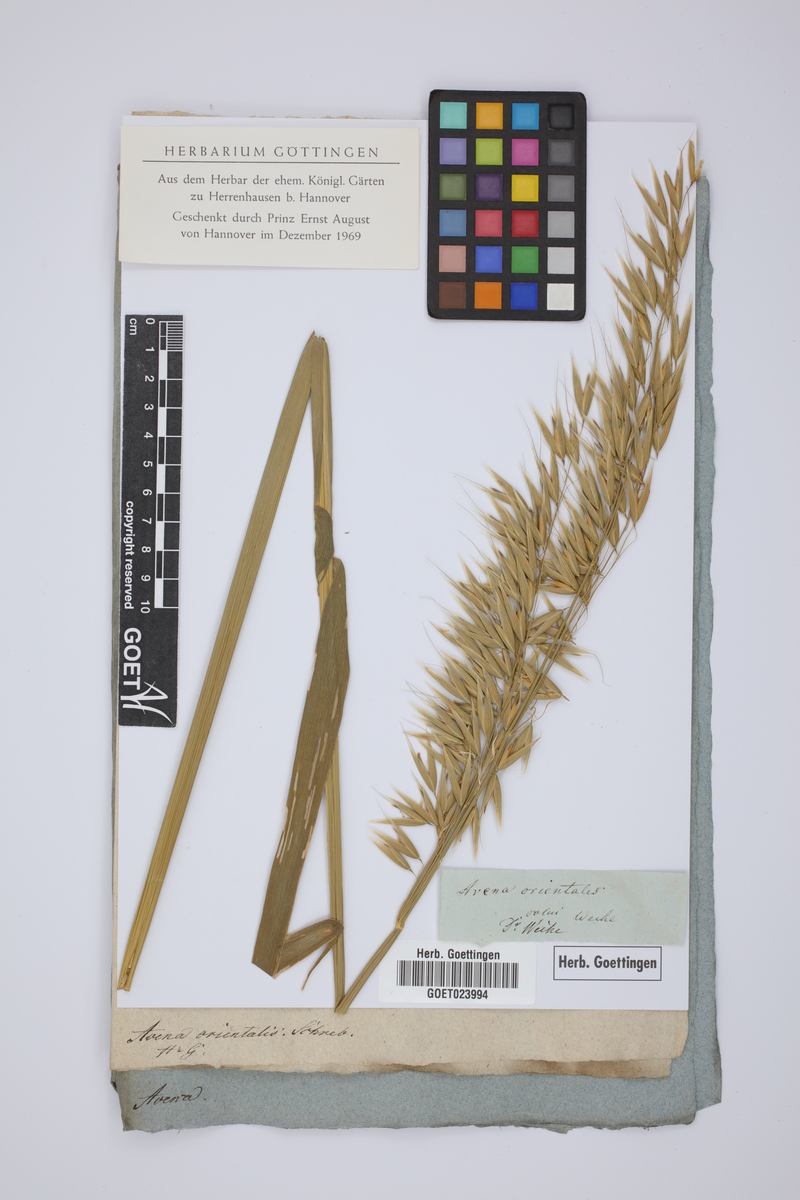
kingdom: Plantae
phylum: Tracheophyta
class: Liliopsida
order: Poales
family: Poaceae
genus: Avena
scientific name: Avena sativa
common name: Oat
